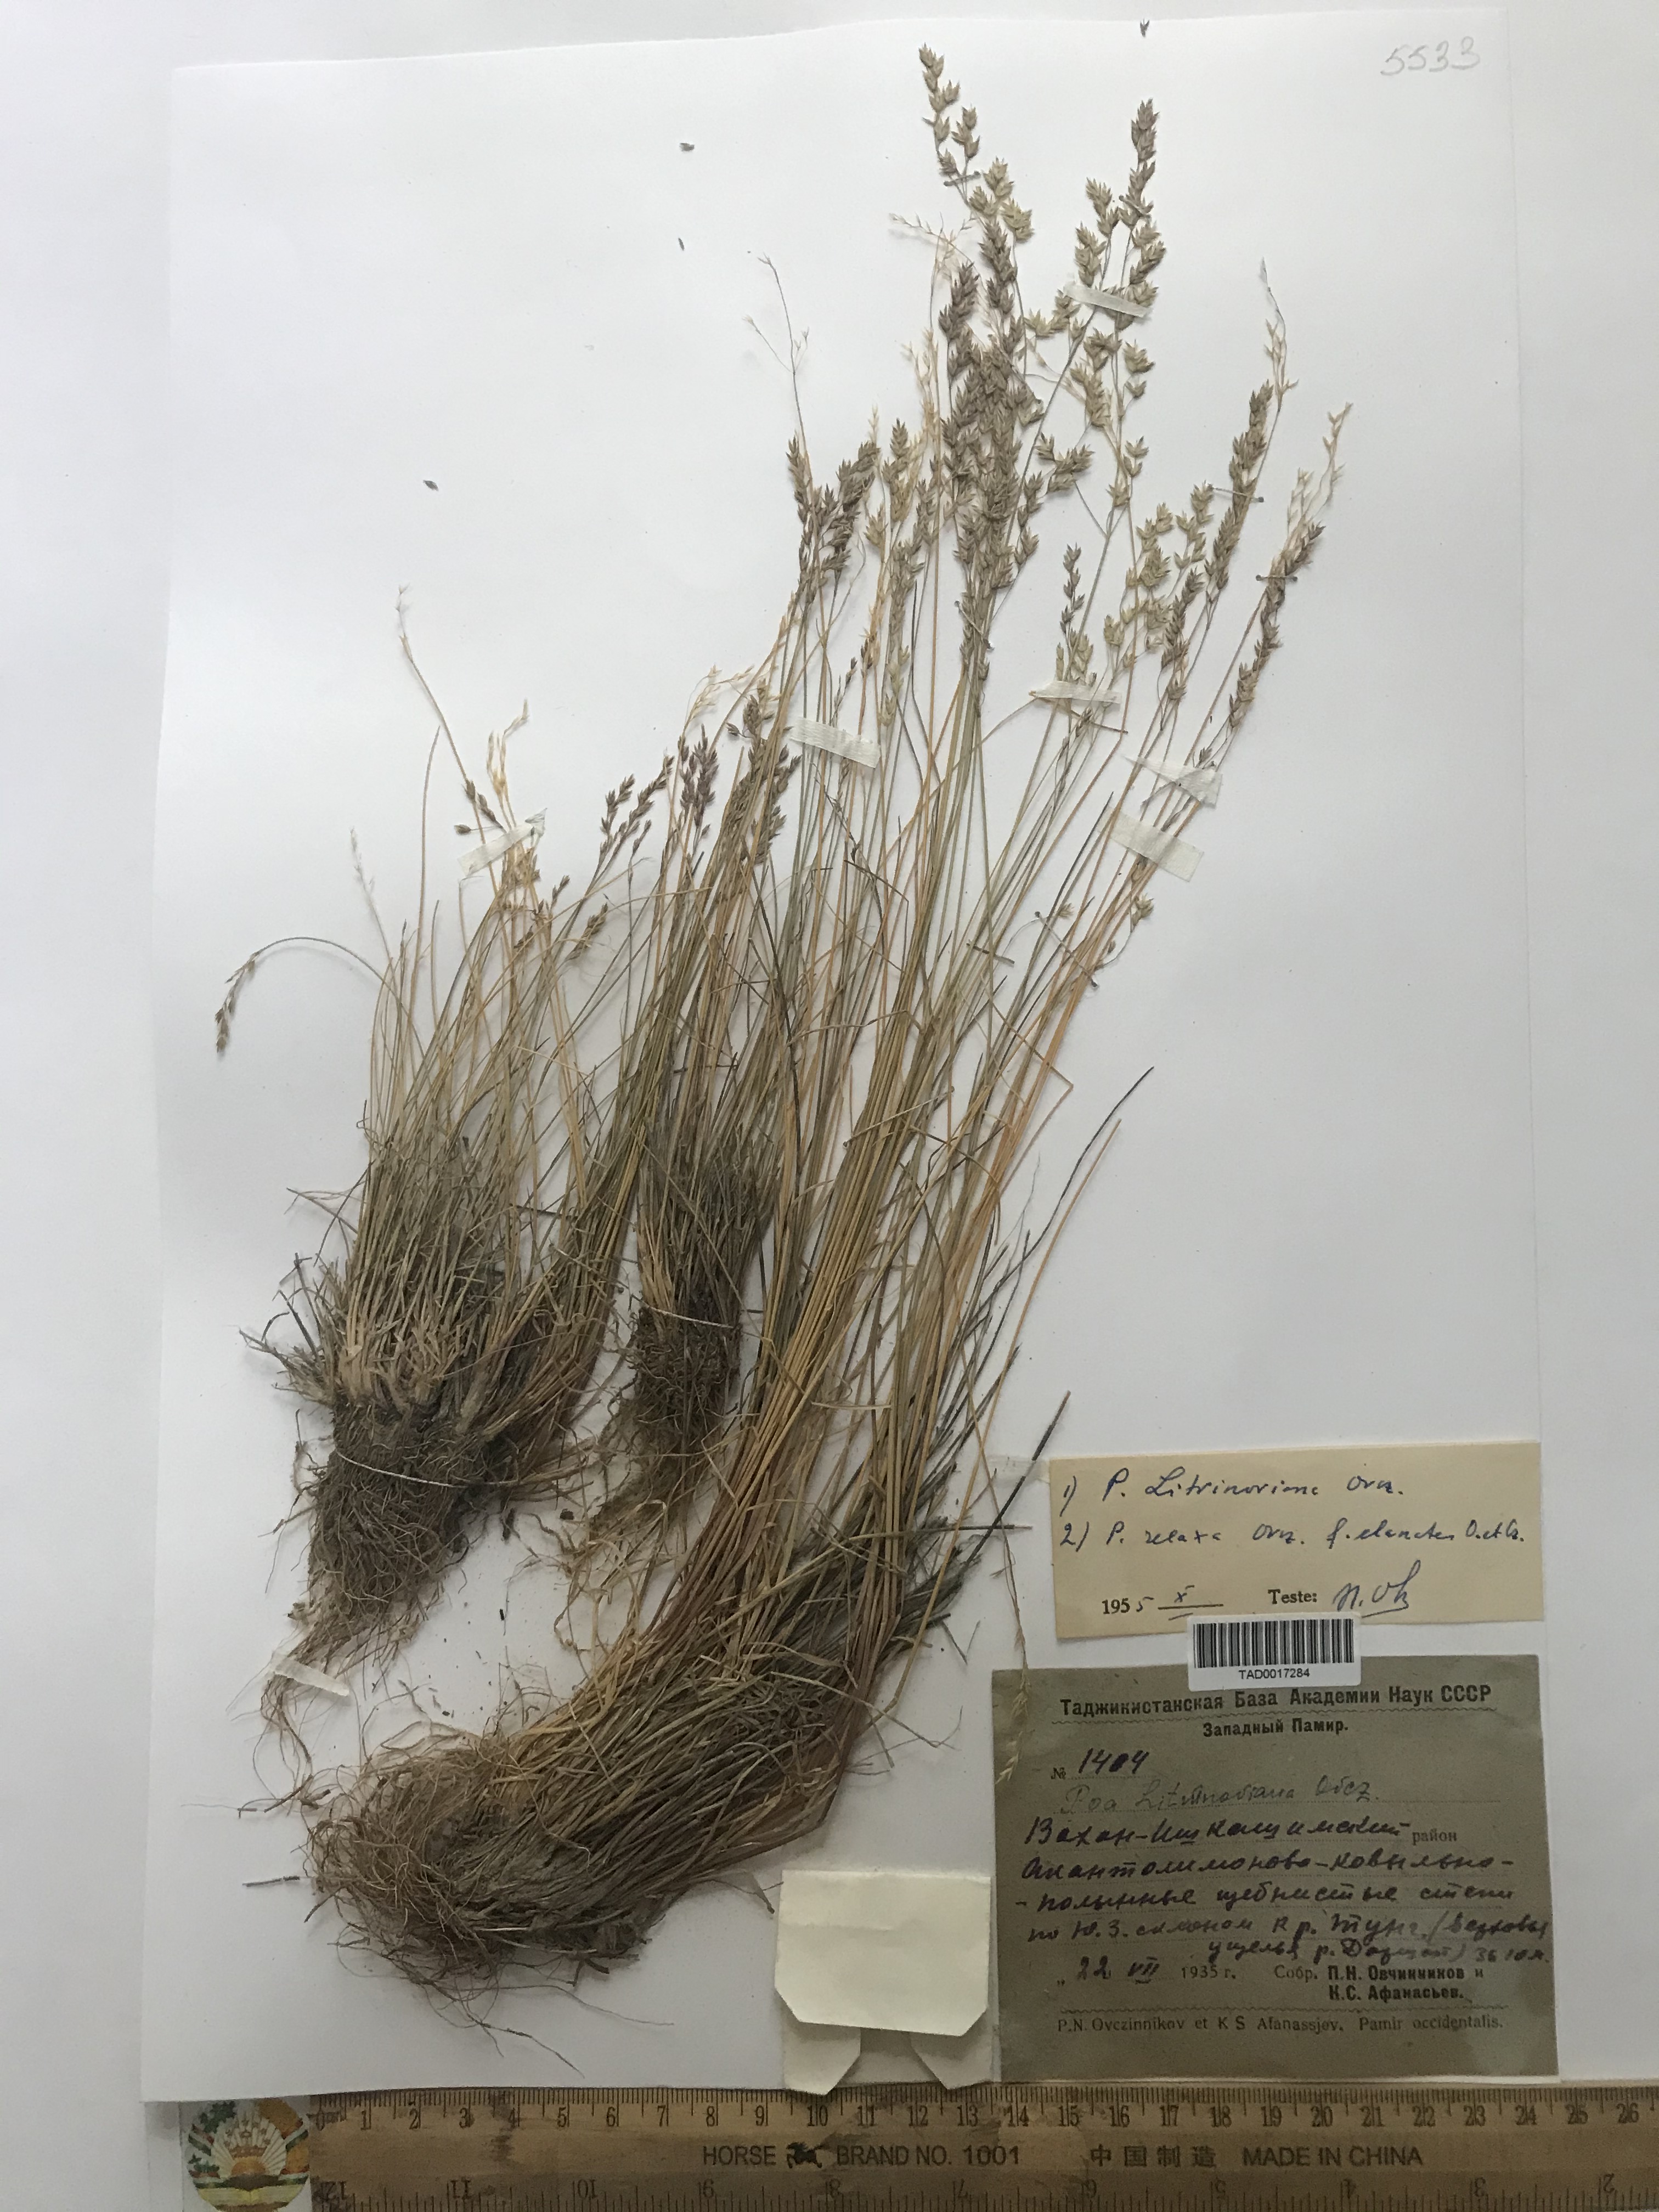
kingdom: Plantae
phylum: Tracheophyta
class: Liliopsida
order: Poales
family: Poaceae
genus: Poa
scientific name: Poa glauca
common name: Glaucous bluegrass
